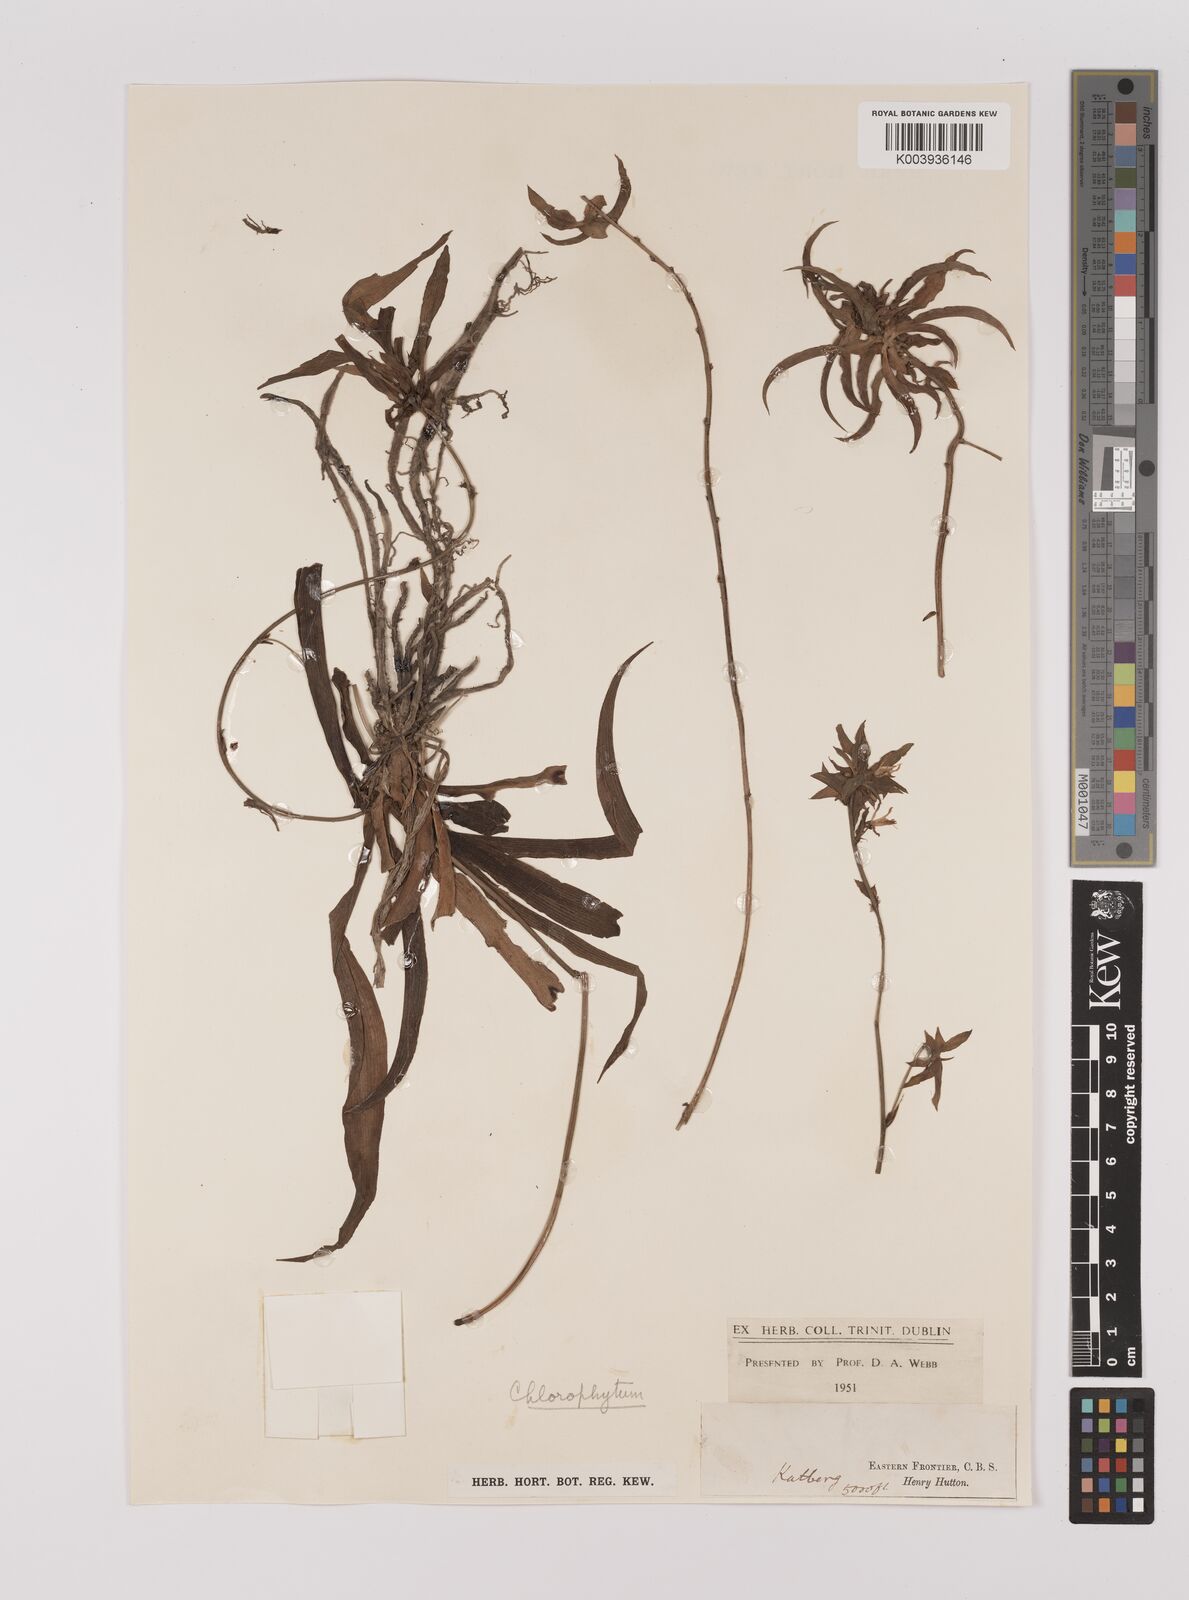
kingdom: Plantae
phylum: Tracheophyta
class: Liliopsida
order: Asparagales
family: Asparagaceae
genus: Chlorophytum
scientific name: Chlorophytum
